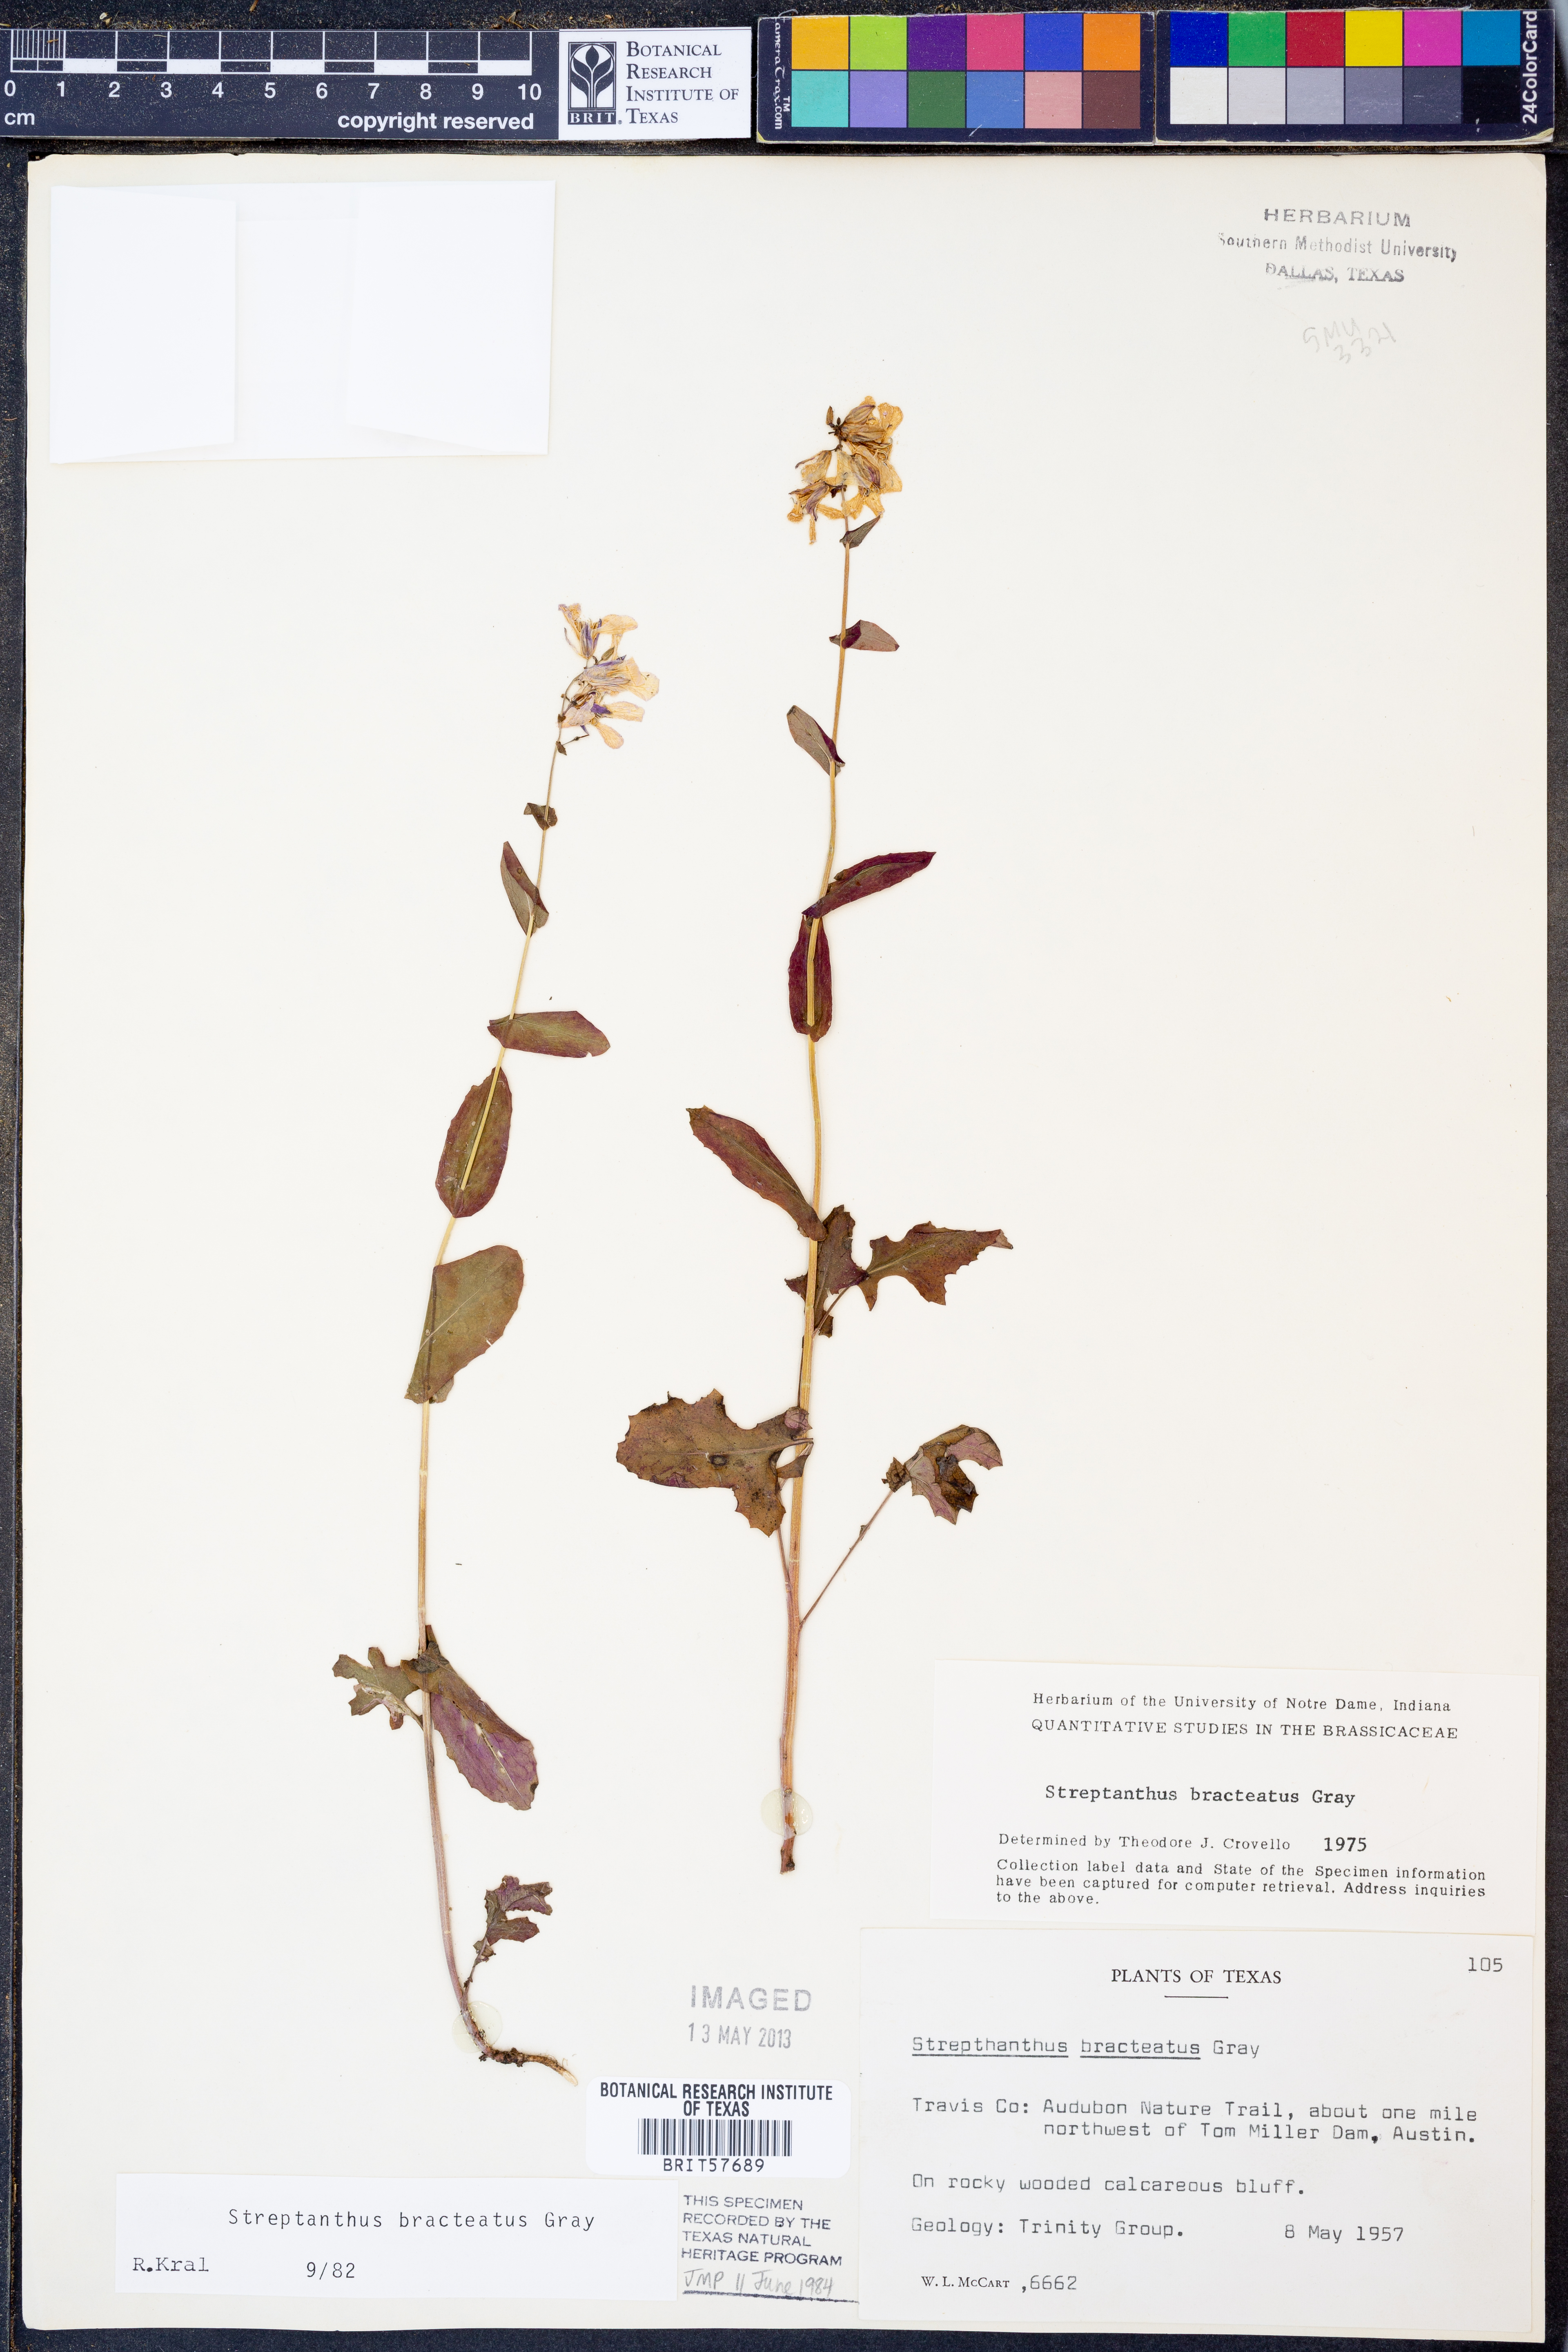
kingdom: Plantae
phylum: Tracheophyta
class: Magnoliopsida
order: Brassicales
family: Brassicaceae
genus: Streptanthus
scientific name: Streptanthus bracteatus
